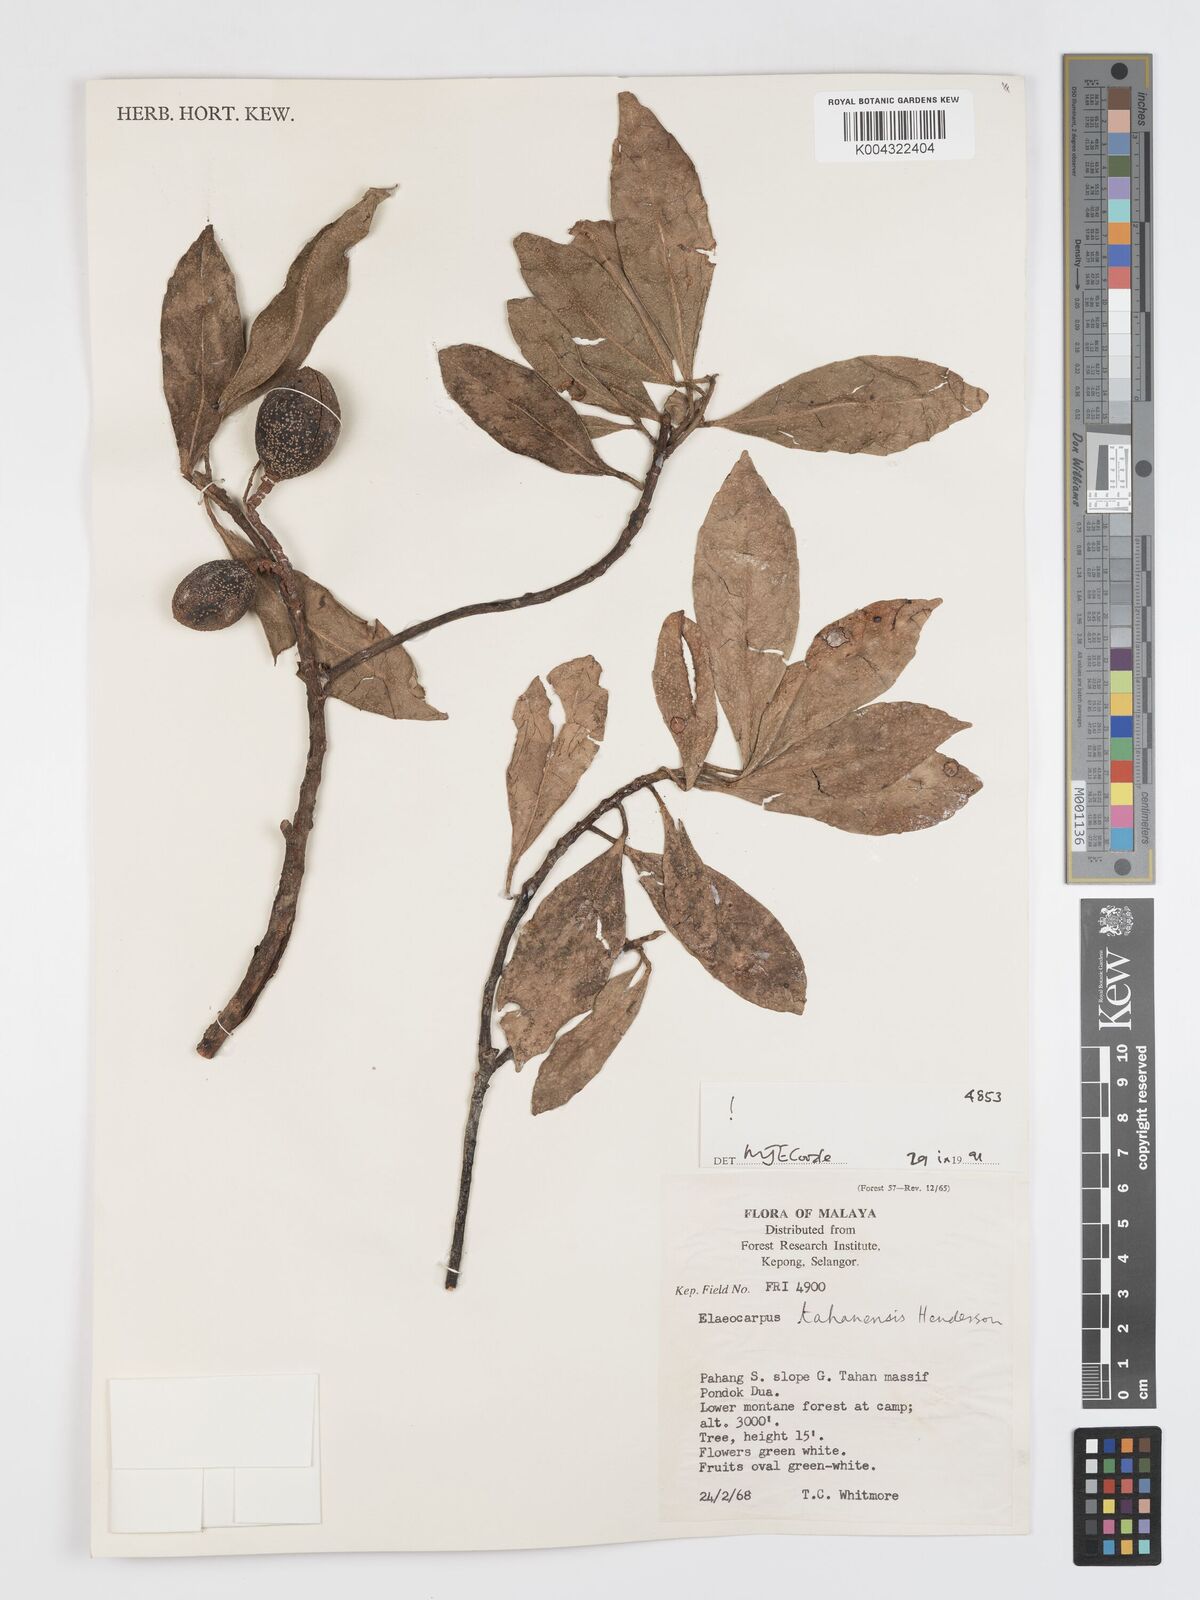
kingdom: Plantae
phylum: Tracheophyta
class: Magnoliopsida
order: Oxalidales
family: Elaeocarpaceae
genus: Elaeocarpus
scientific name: Elaeocarpus floribundus
